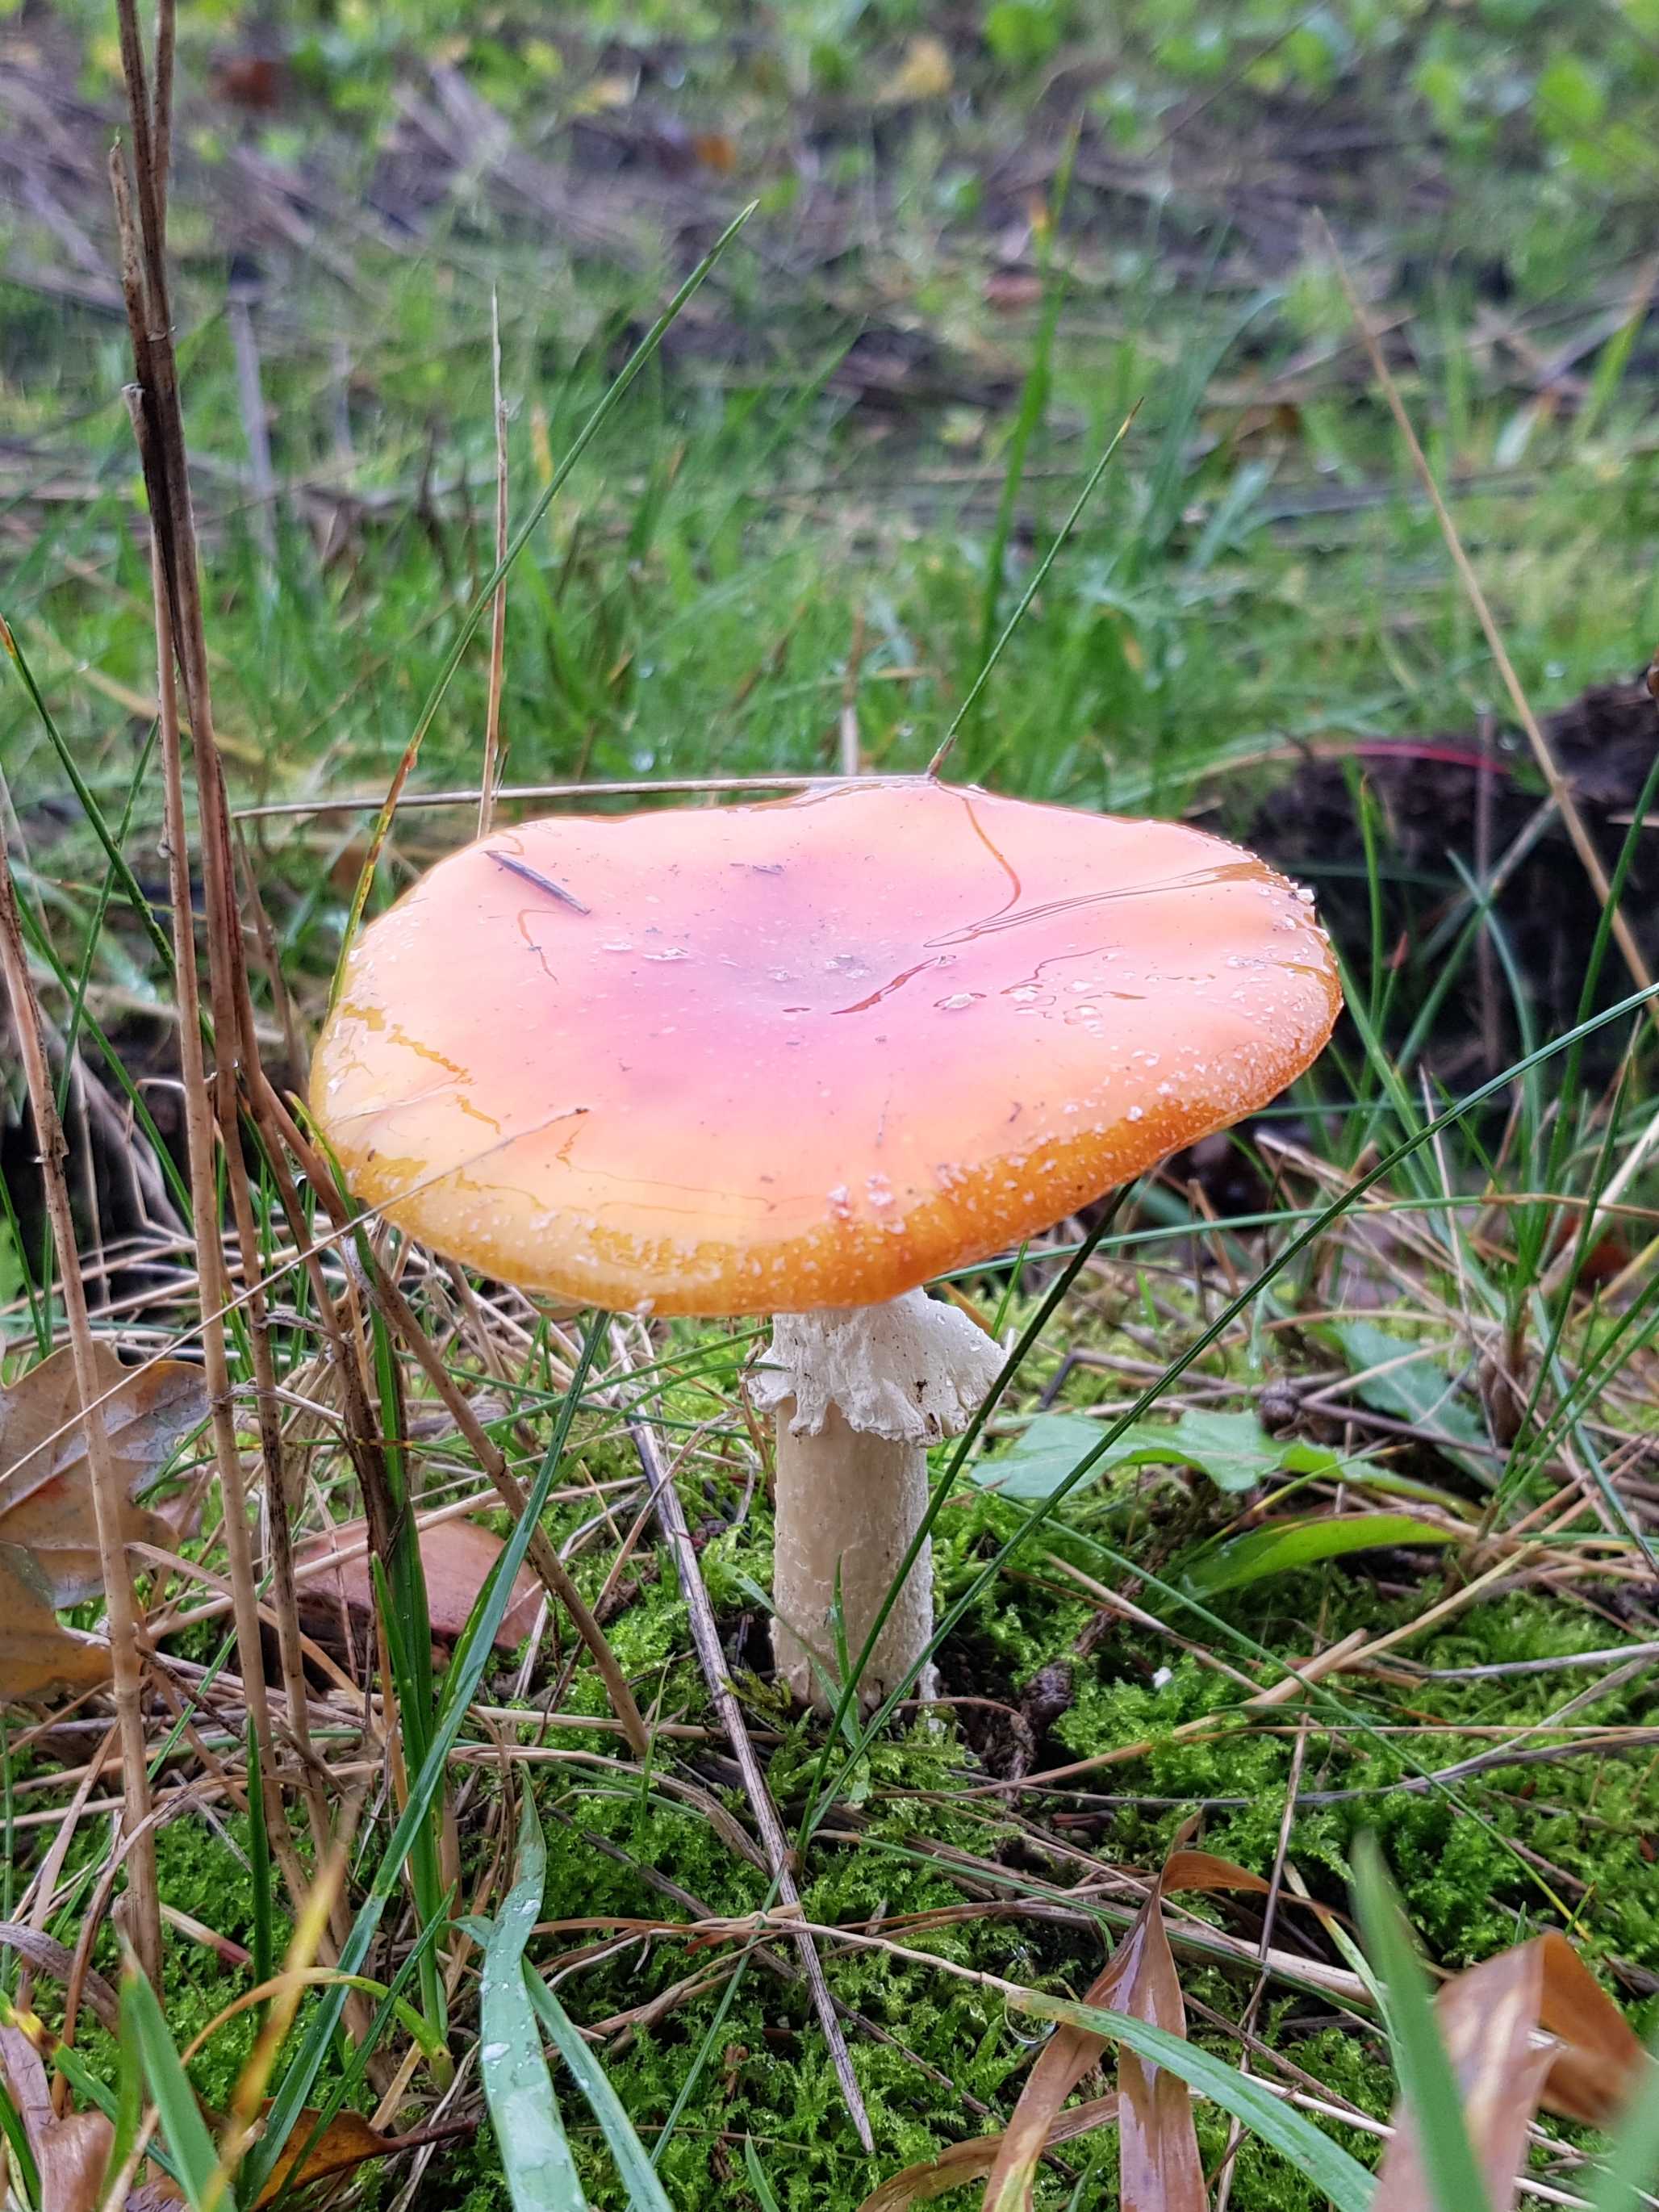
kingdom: Fungi
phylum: Basidiomycota
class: Agaricomycetes
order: Agaricales
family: Amanitaceae
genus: Amanita
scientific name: Amanita muscaria
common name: rød fluesvamp
